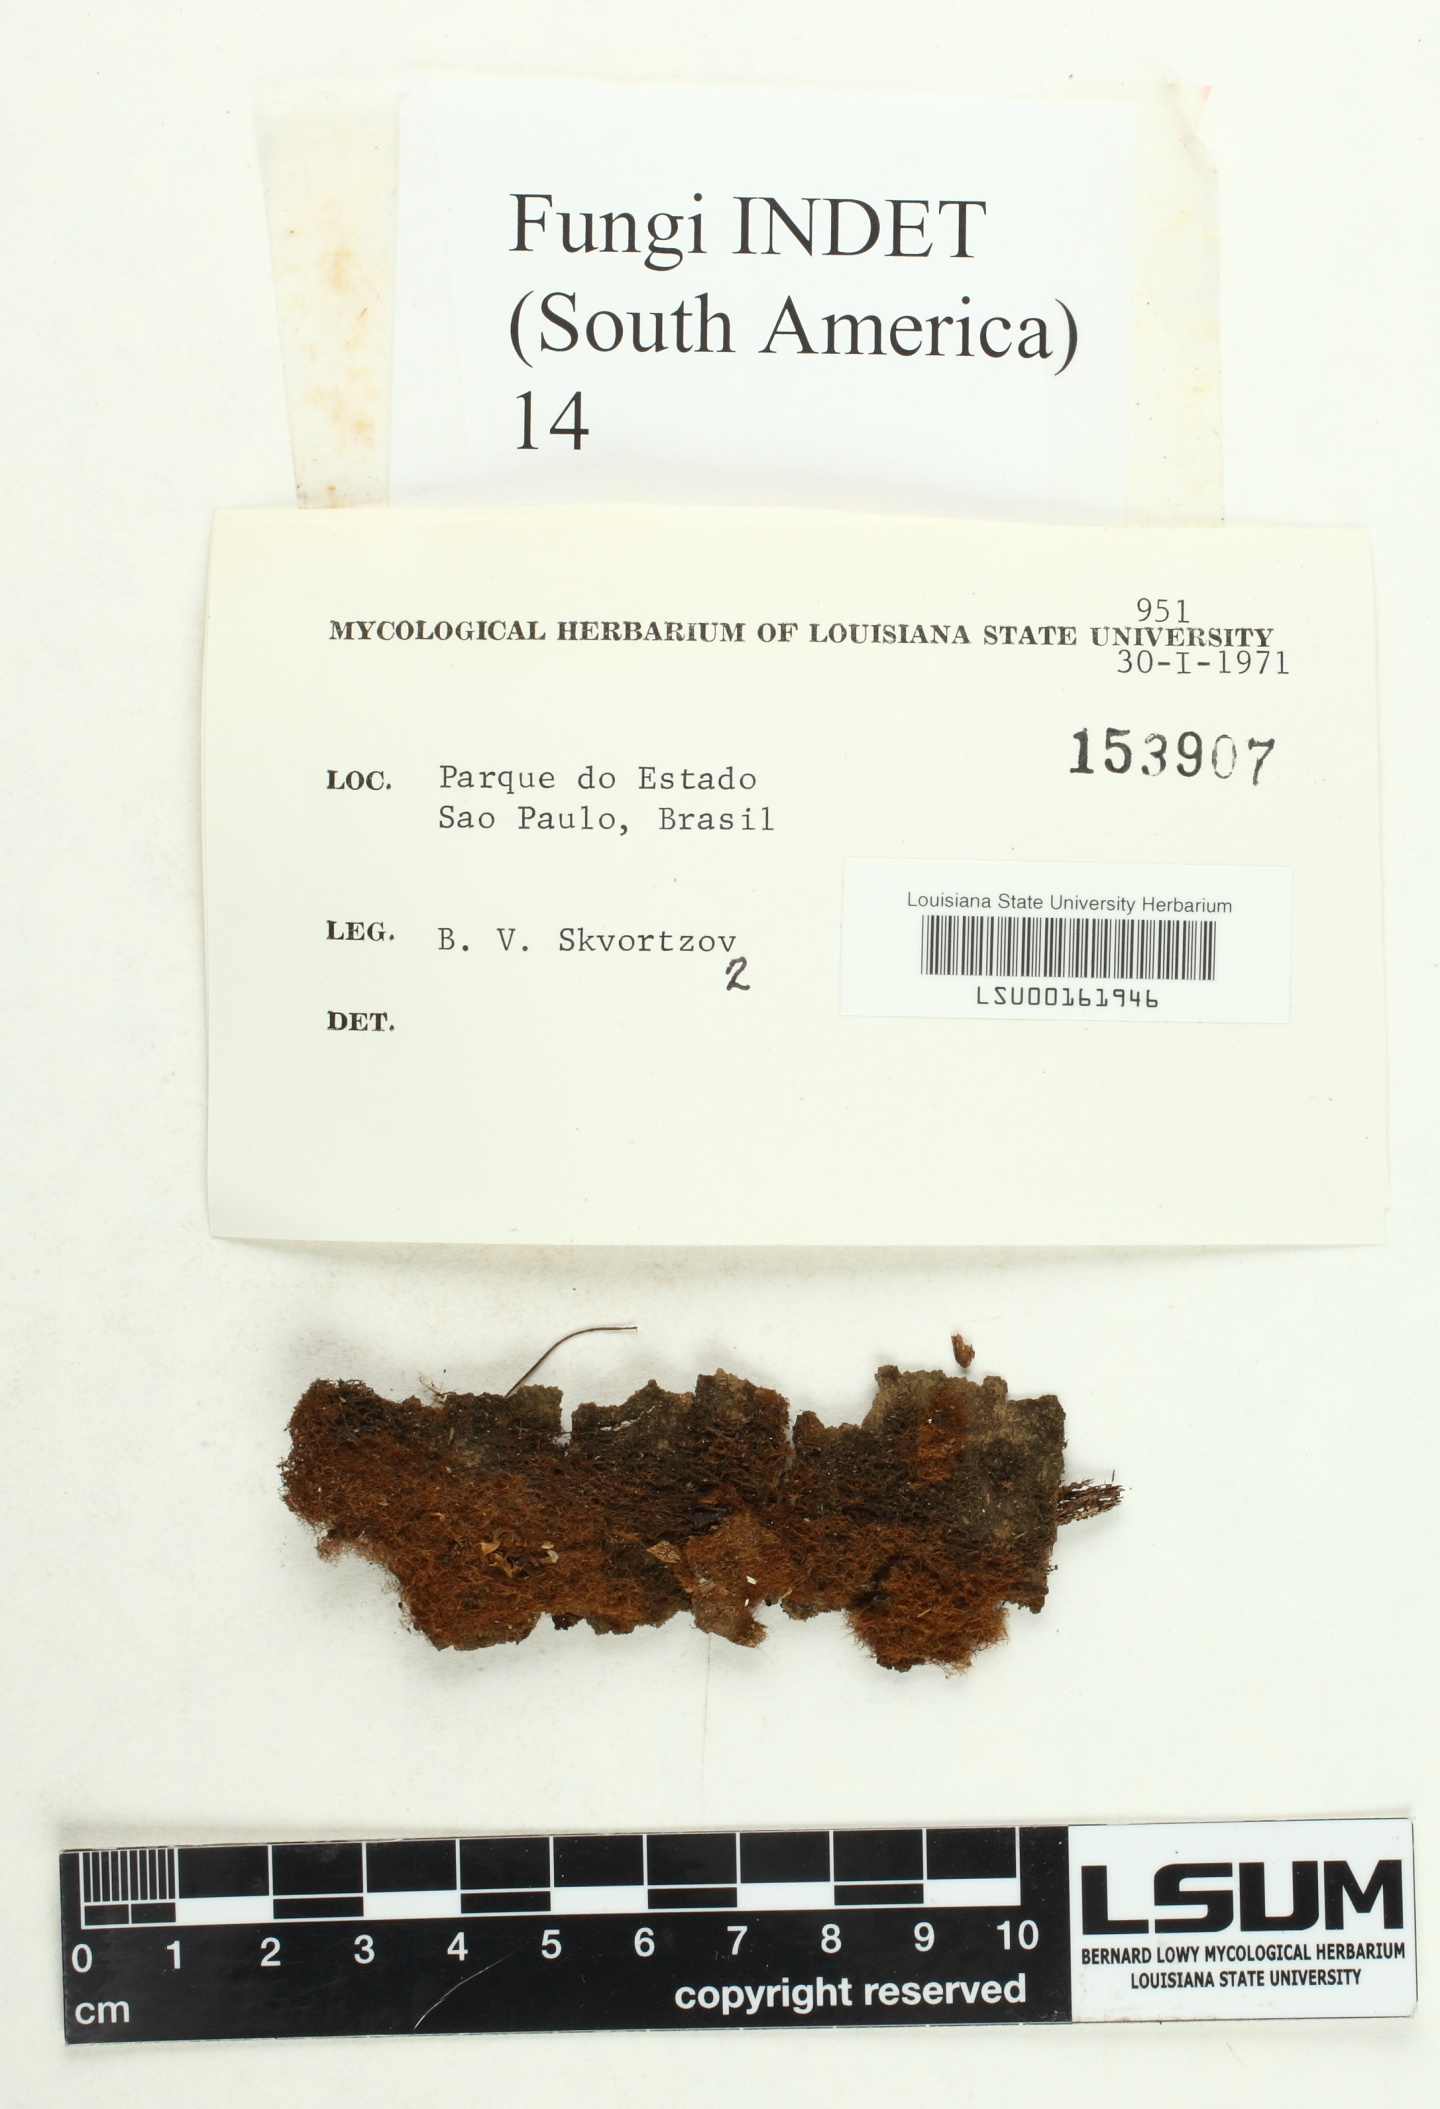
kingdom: Fungi
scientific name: Fungi
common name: Fungi
